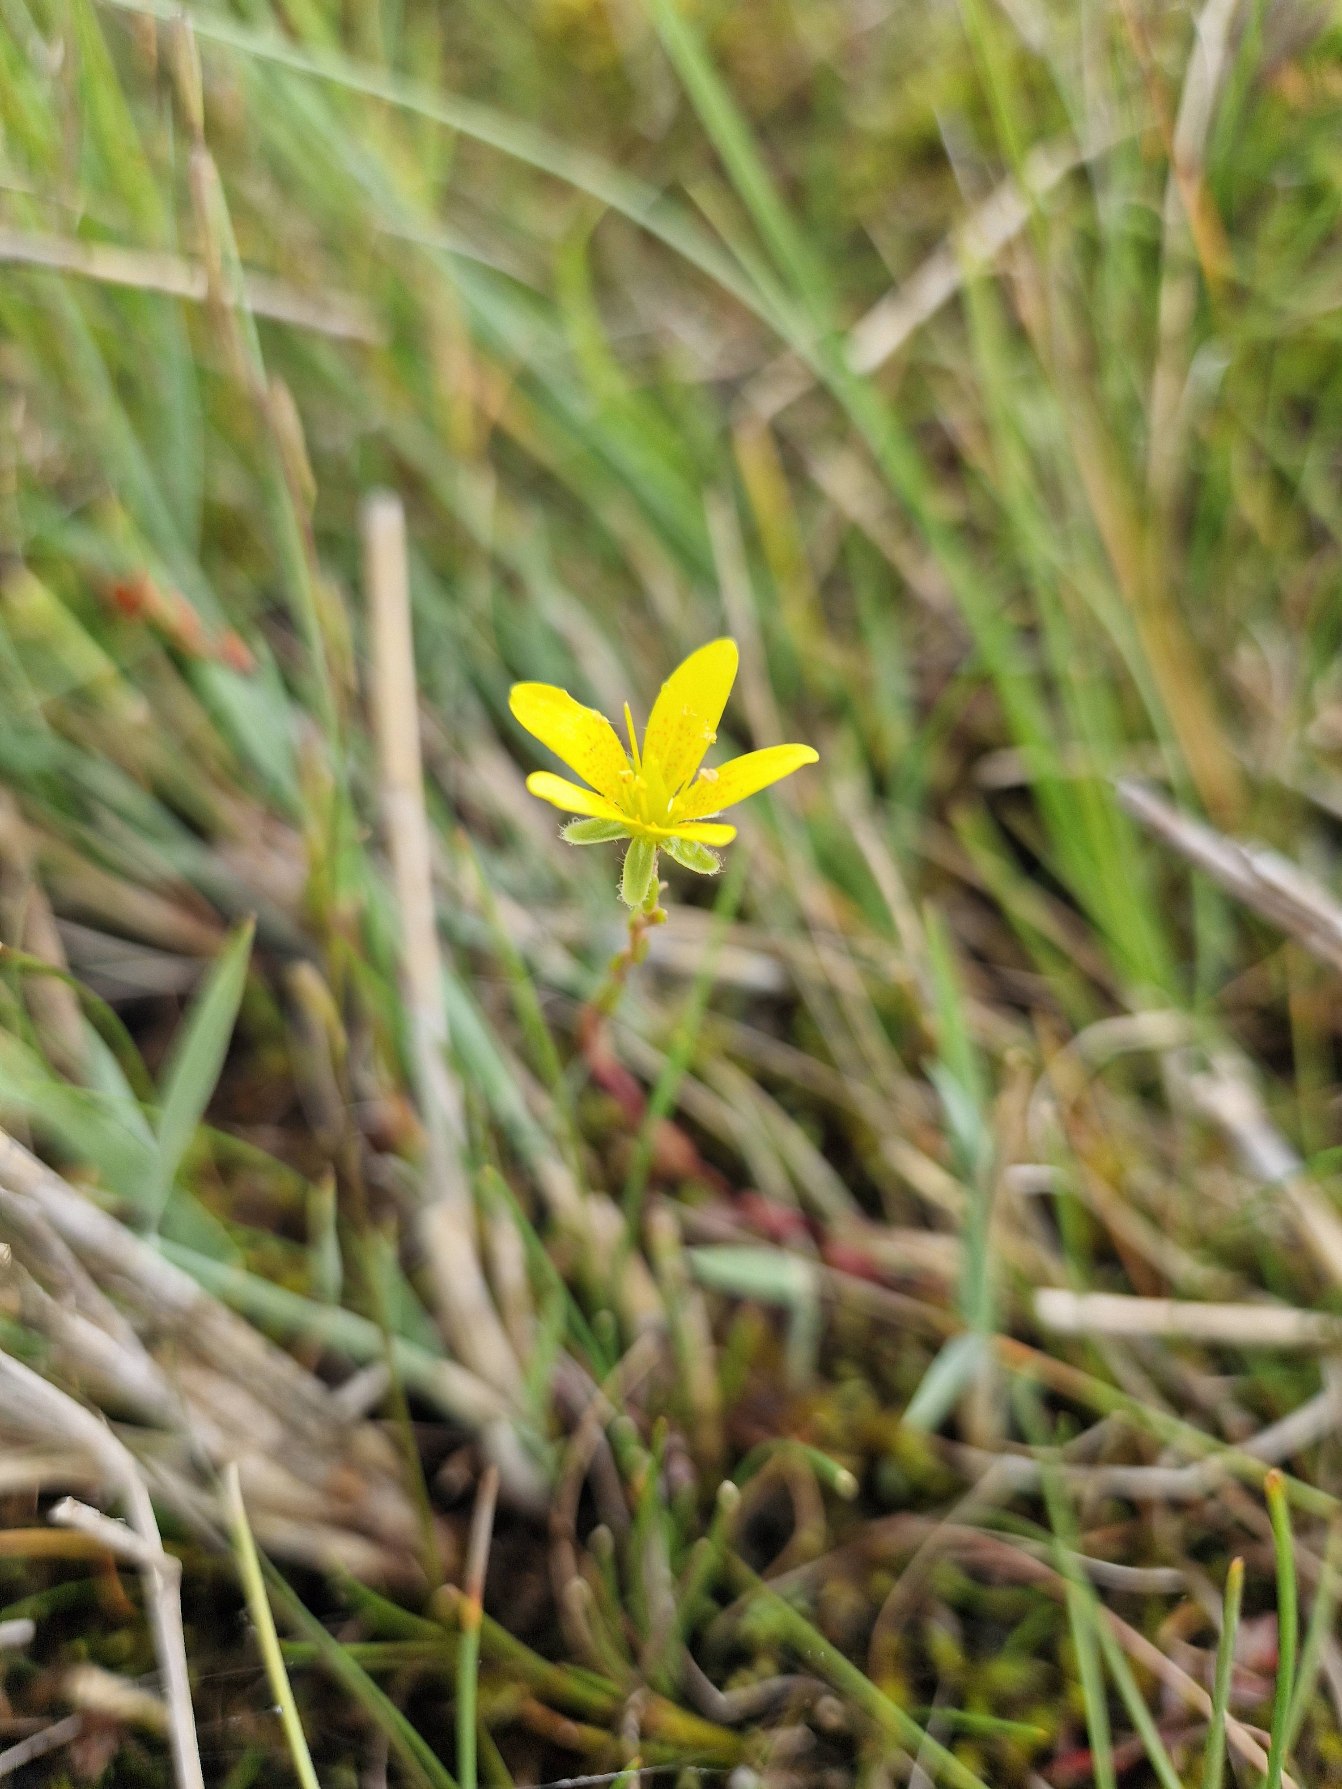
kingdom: Plantae
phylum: Tracheophyta
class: Magnoliopsida
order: Saxifragales
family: Saxifragaceae
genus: Saxifraga
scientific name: Saxifraga hirculus
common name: Gul stenbræk
